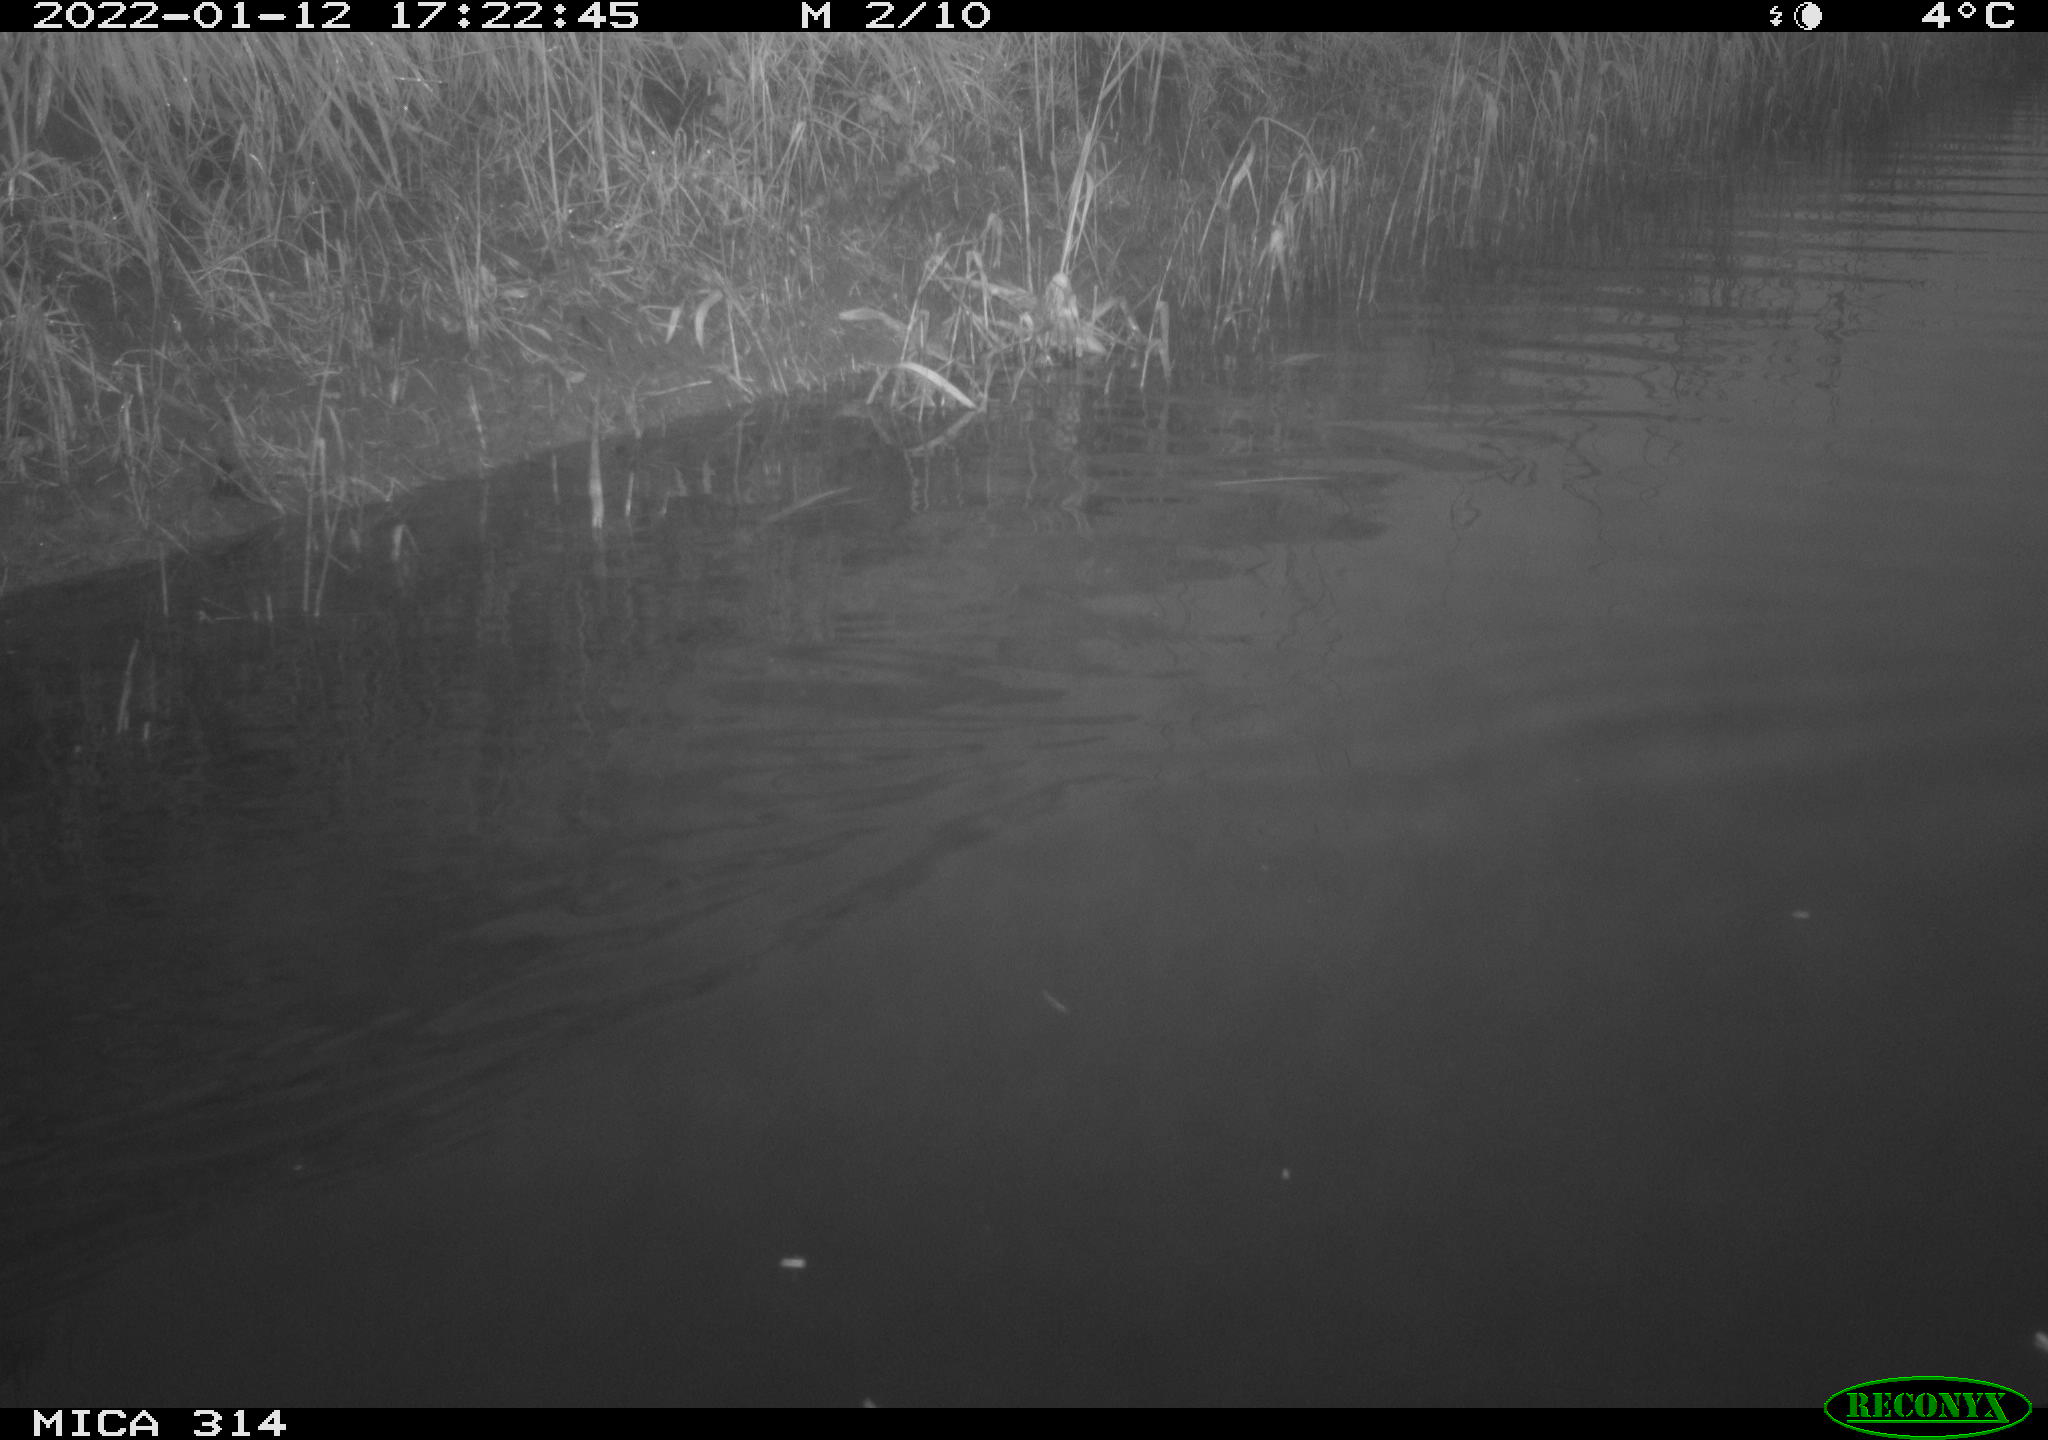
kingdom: Animalia
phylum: Chordata
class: Aves
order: Gruiformes
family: Rallidae
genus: Gallinula
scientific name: Gallinula chloropus
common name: Common moorhen
